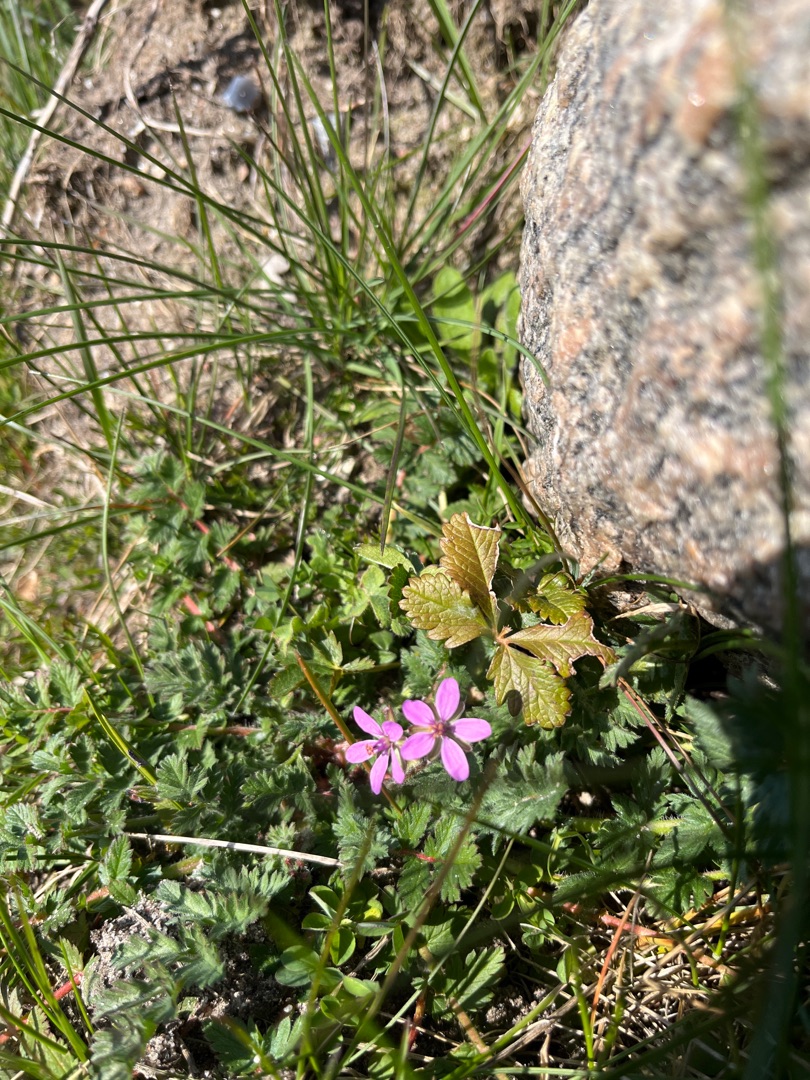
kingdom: Plantae
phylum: Tracheophyta
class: Magnoliopsida
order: Geraniales
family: Geraniaceae
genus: Erodium
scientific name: Erodium cicutarium
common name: Hejrenæb
